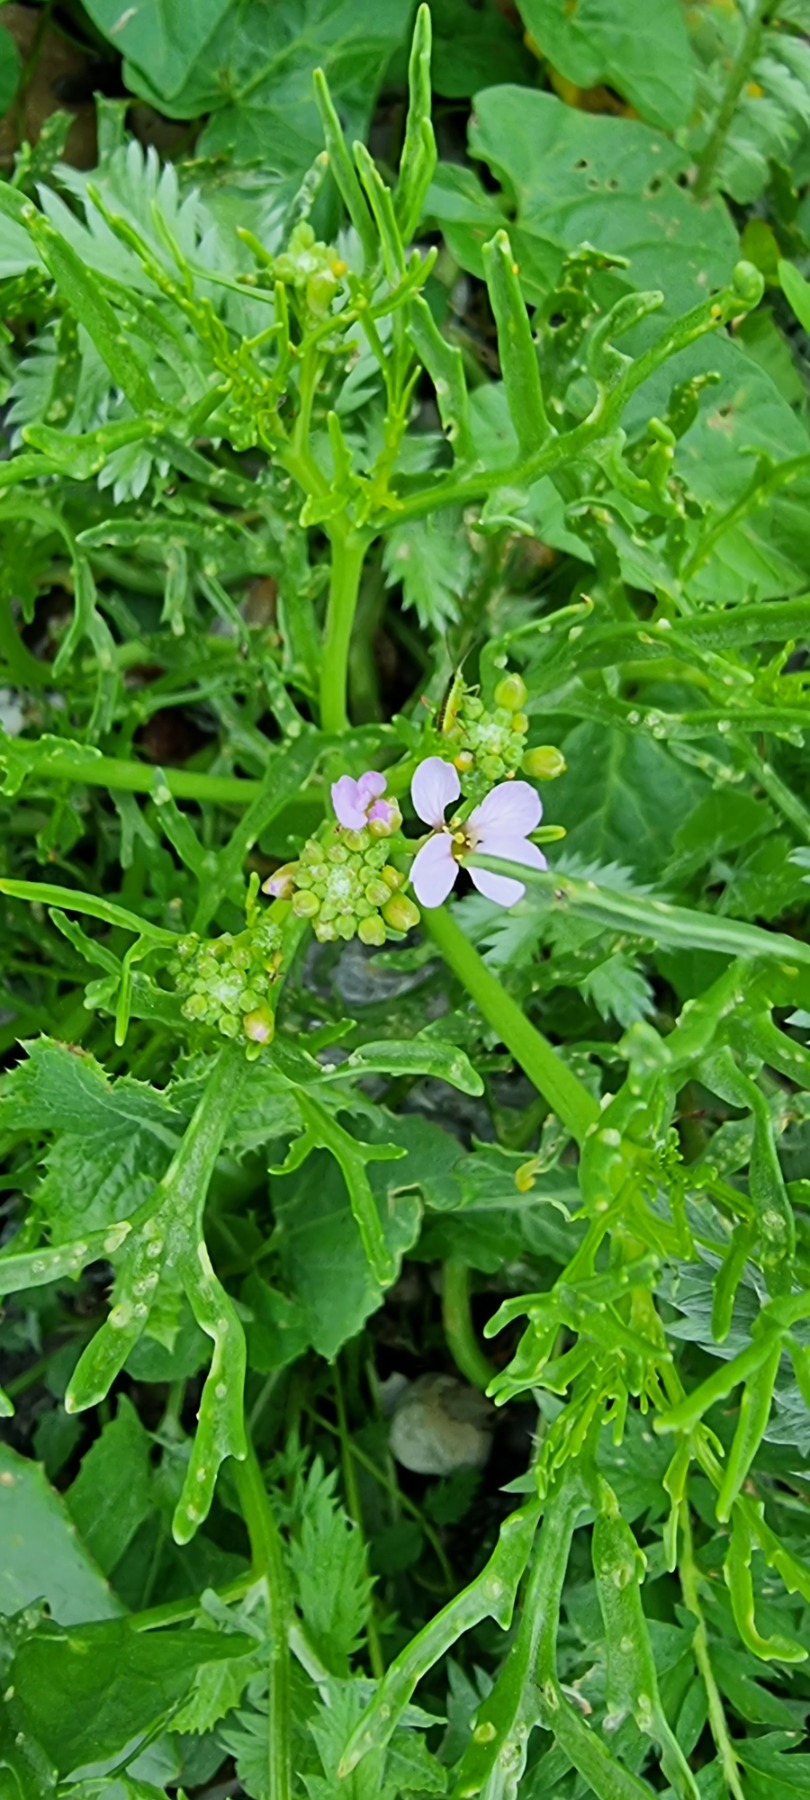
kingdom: Plantae
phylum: Tracheophyta
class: Magnoliopsida
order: Brassicales
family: Brassicaceae
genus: Cakile
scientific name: Cakile maritima
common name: Strandsennep
